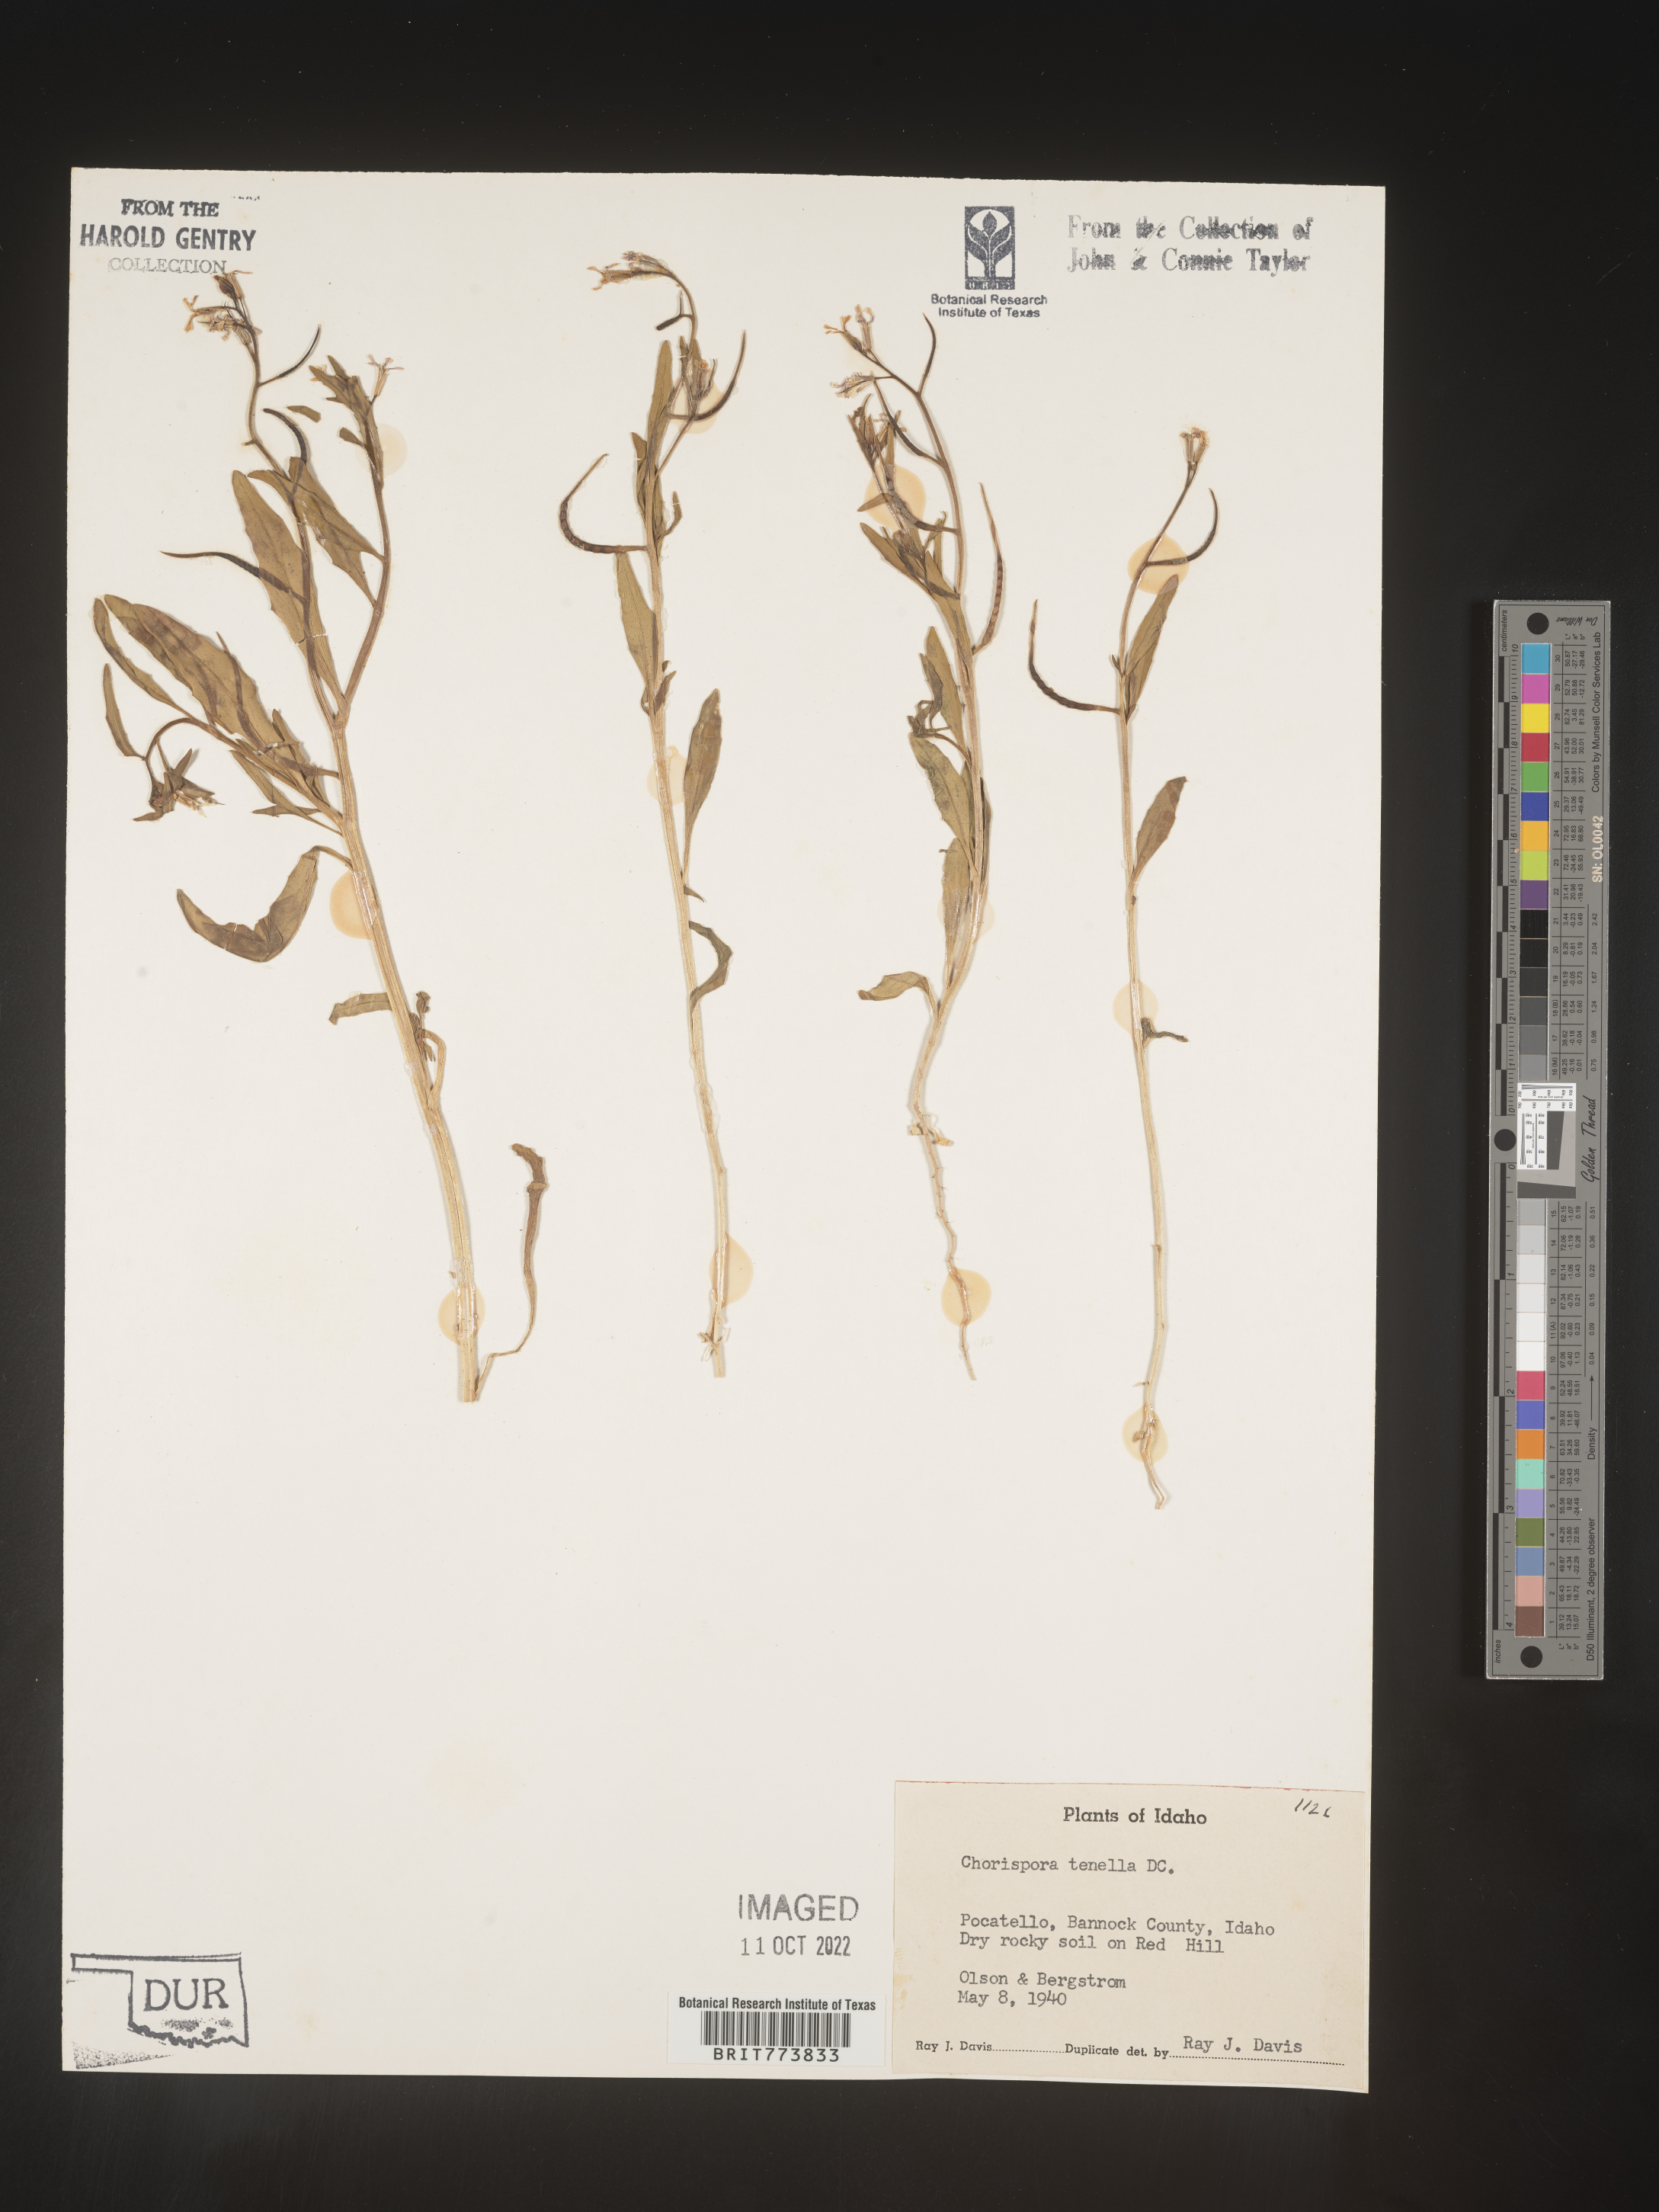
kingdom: Plantae
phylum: Tracheophyta
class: Magnoliopsida
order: Brassicales
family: Brassicaceae
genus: Chorispora
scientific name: Chorispora tenella
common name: Crossflower
